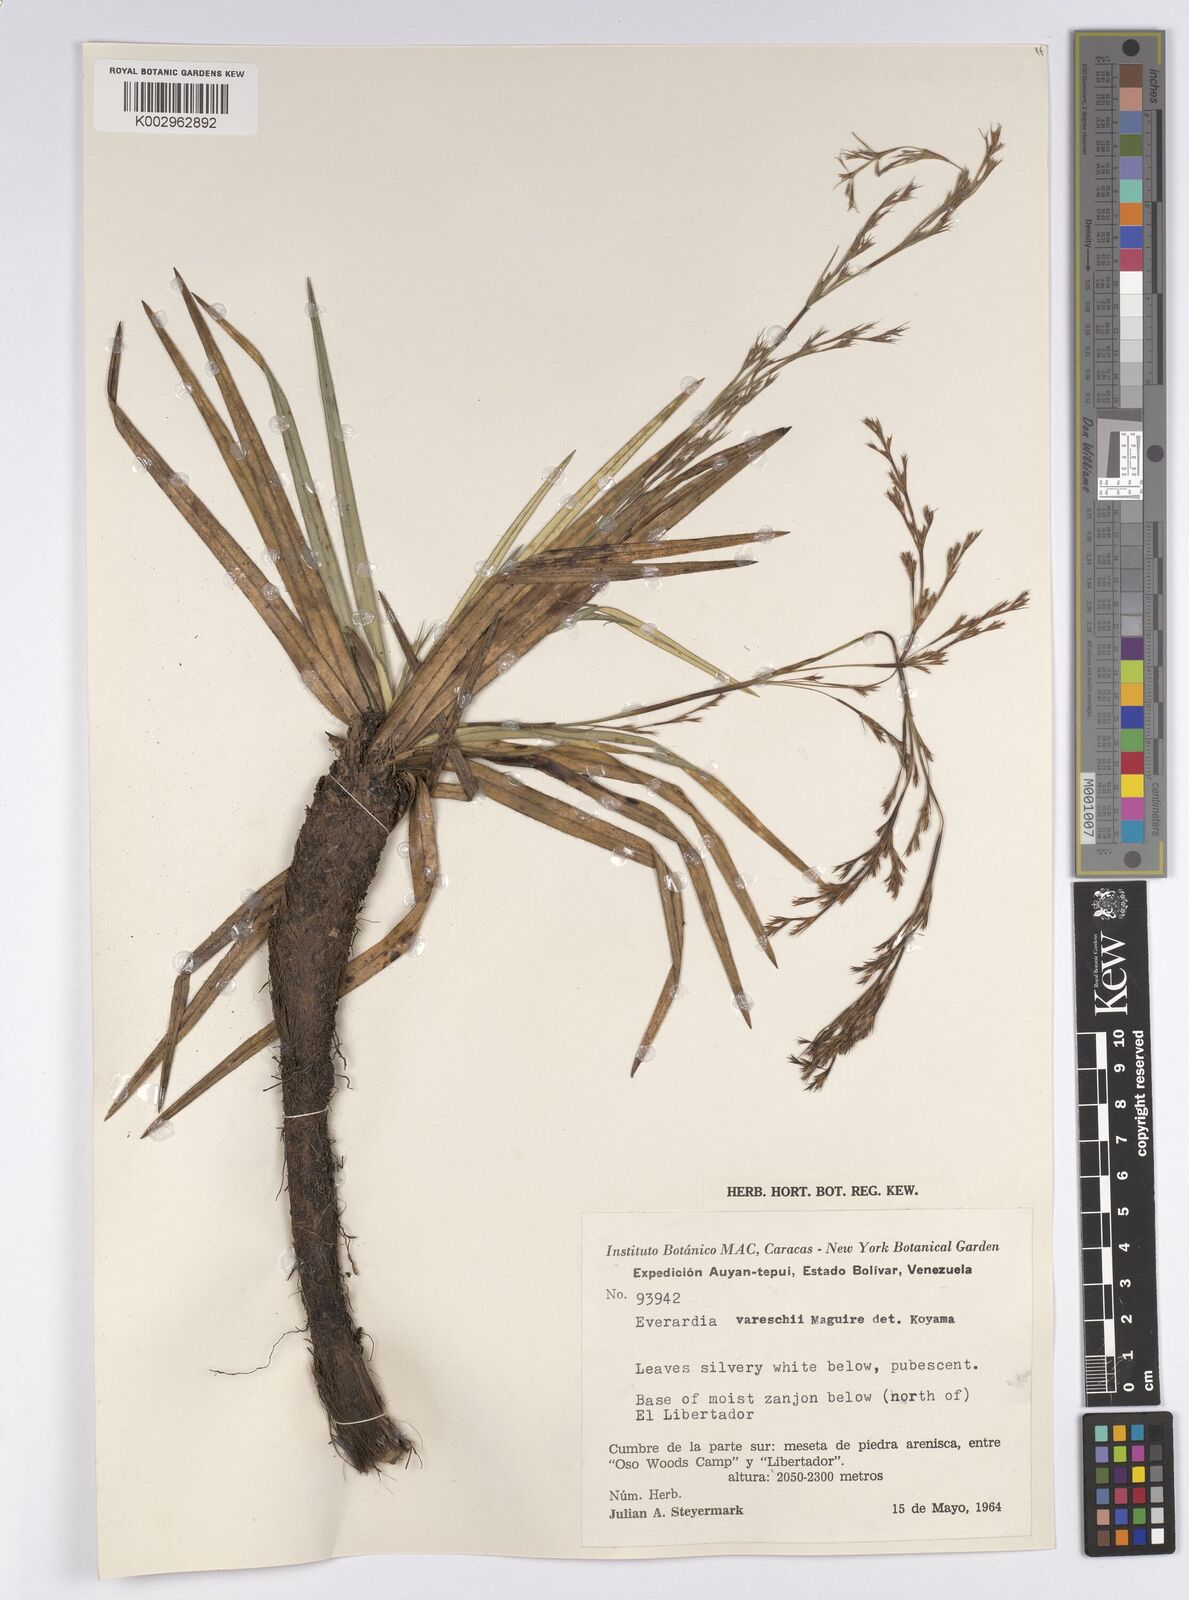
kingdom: Plantae
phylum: Tracheophyta
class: Liliopsida
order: Poales
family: Cyperaceae
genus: Cephalocarpus
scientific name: Cephalocarpus vareschii
